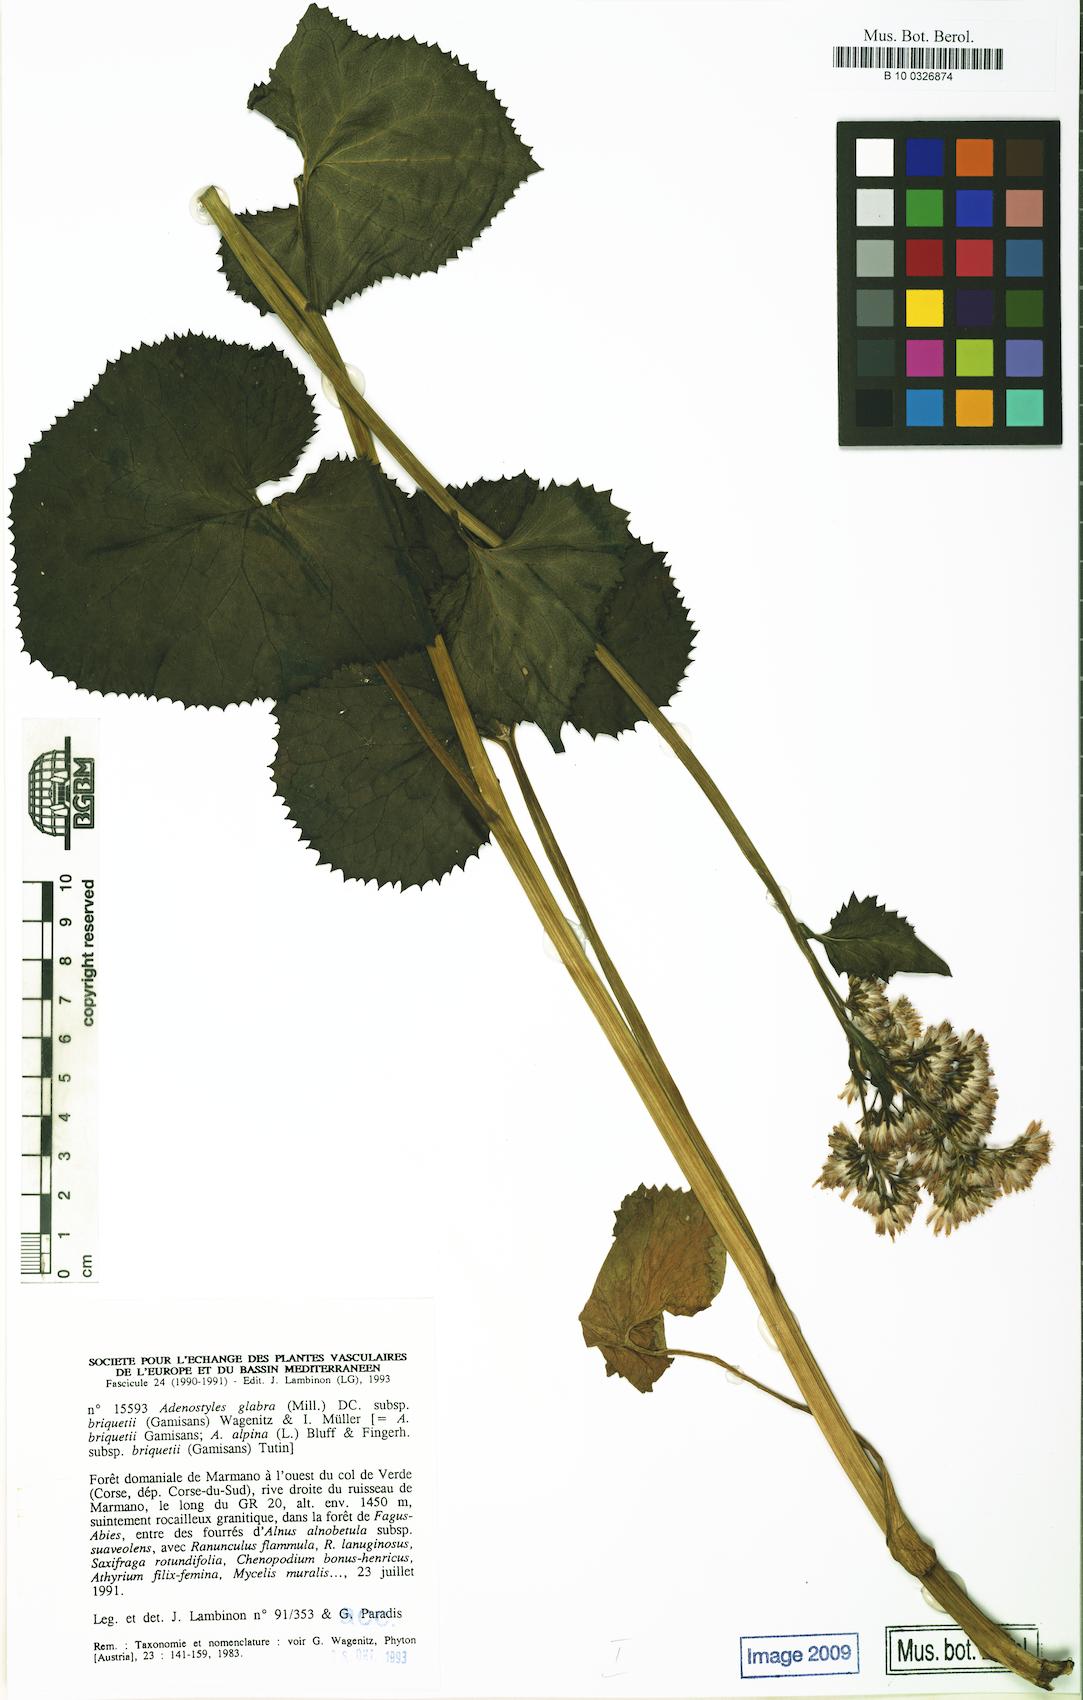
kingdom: Plantae
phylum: Tracheophyta
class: Magnoliopsida
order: Asterales
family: Asteraceae
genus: Adenostyles
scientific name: Adenostyles briquetii
